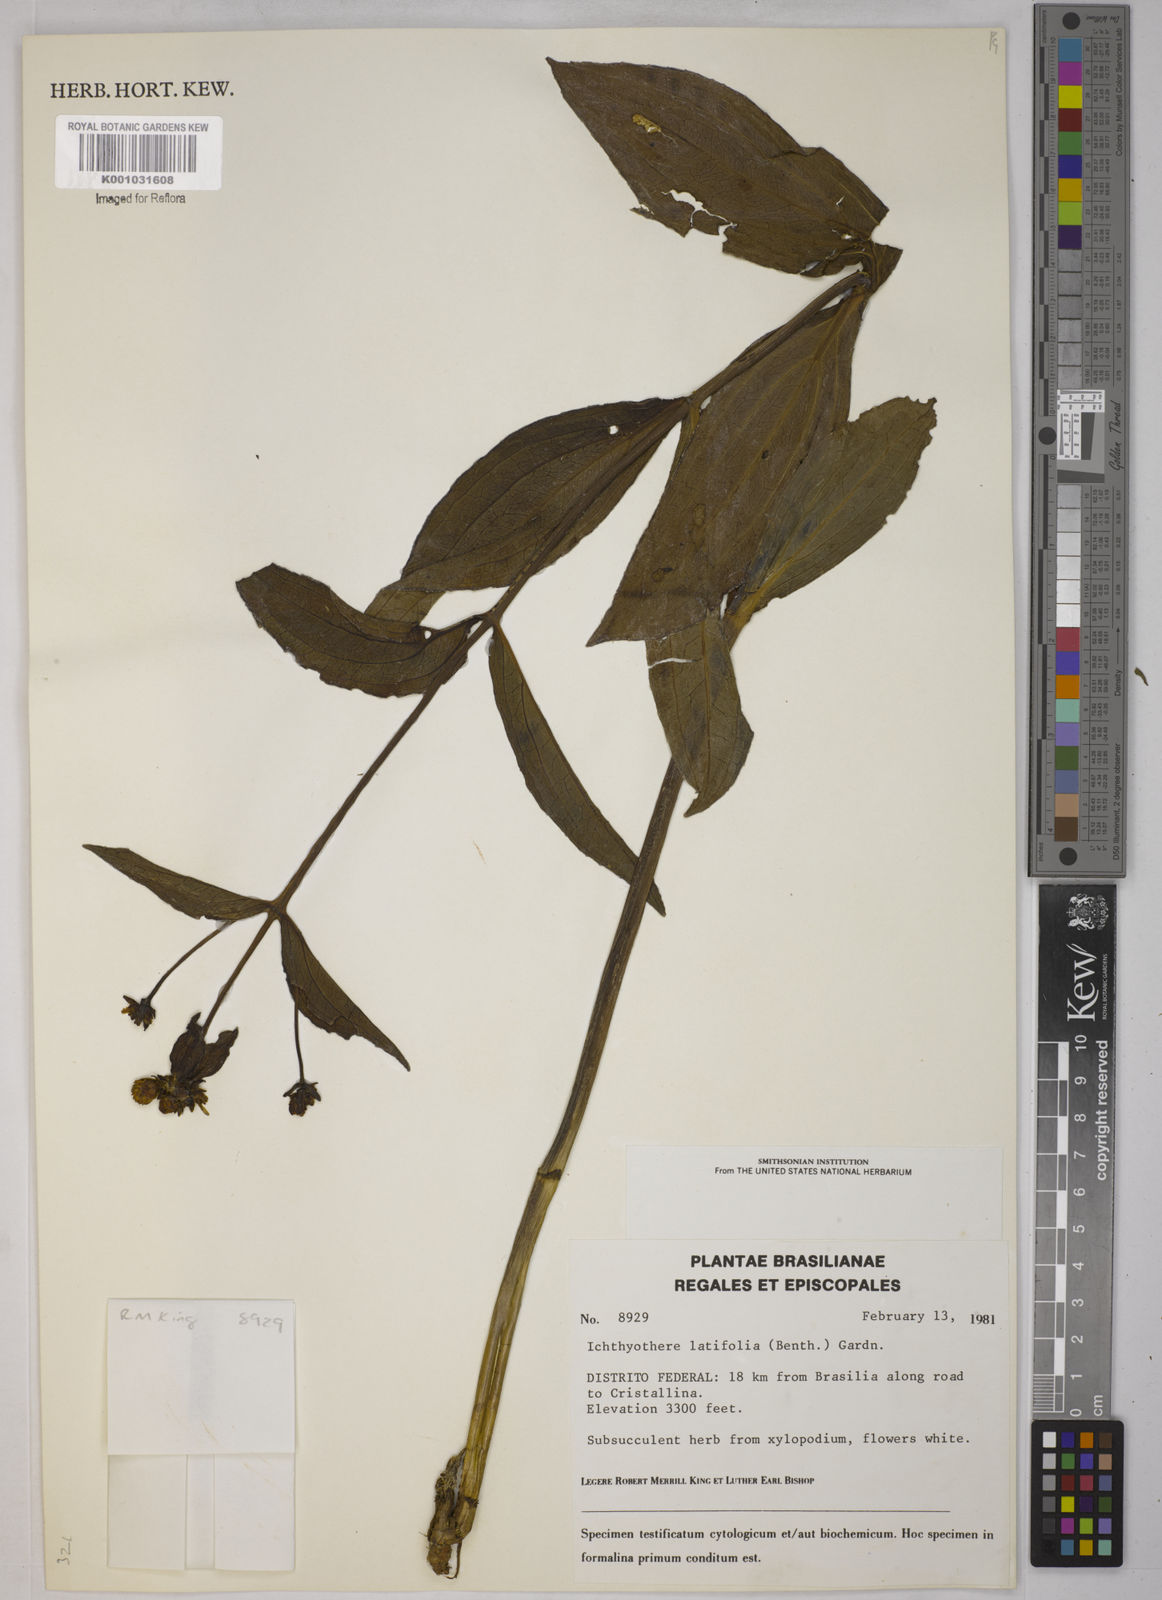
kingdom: Plantae
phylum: Tracheophyta
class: Magnoliopsida
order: Asterales
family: Asteraceae
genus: Ichthyothere
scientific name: Ichthyothere latifolia
